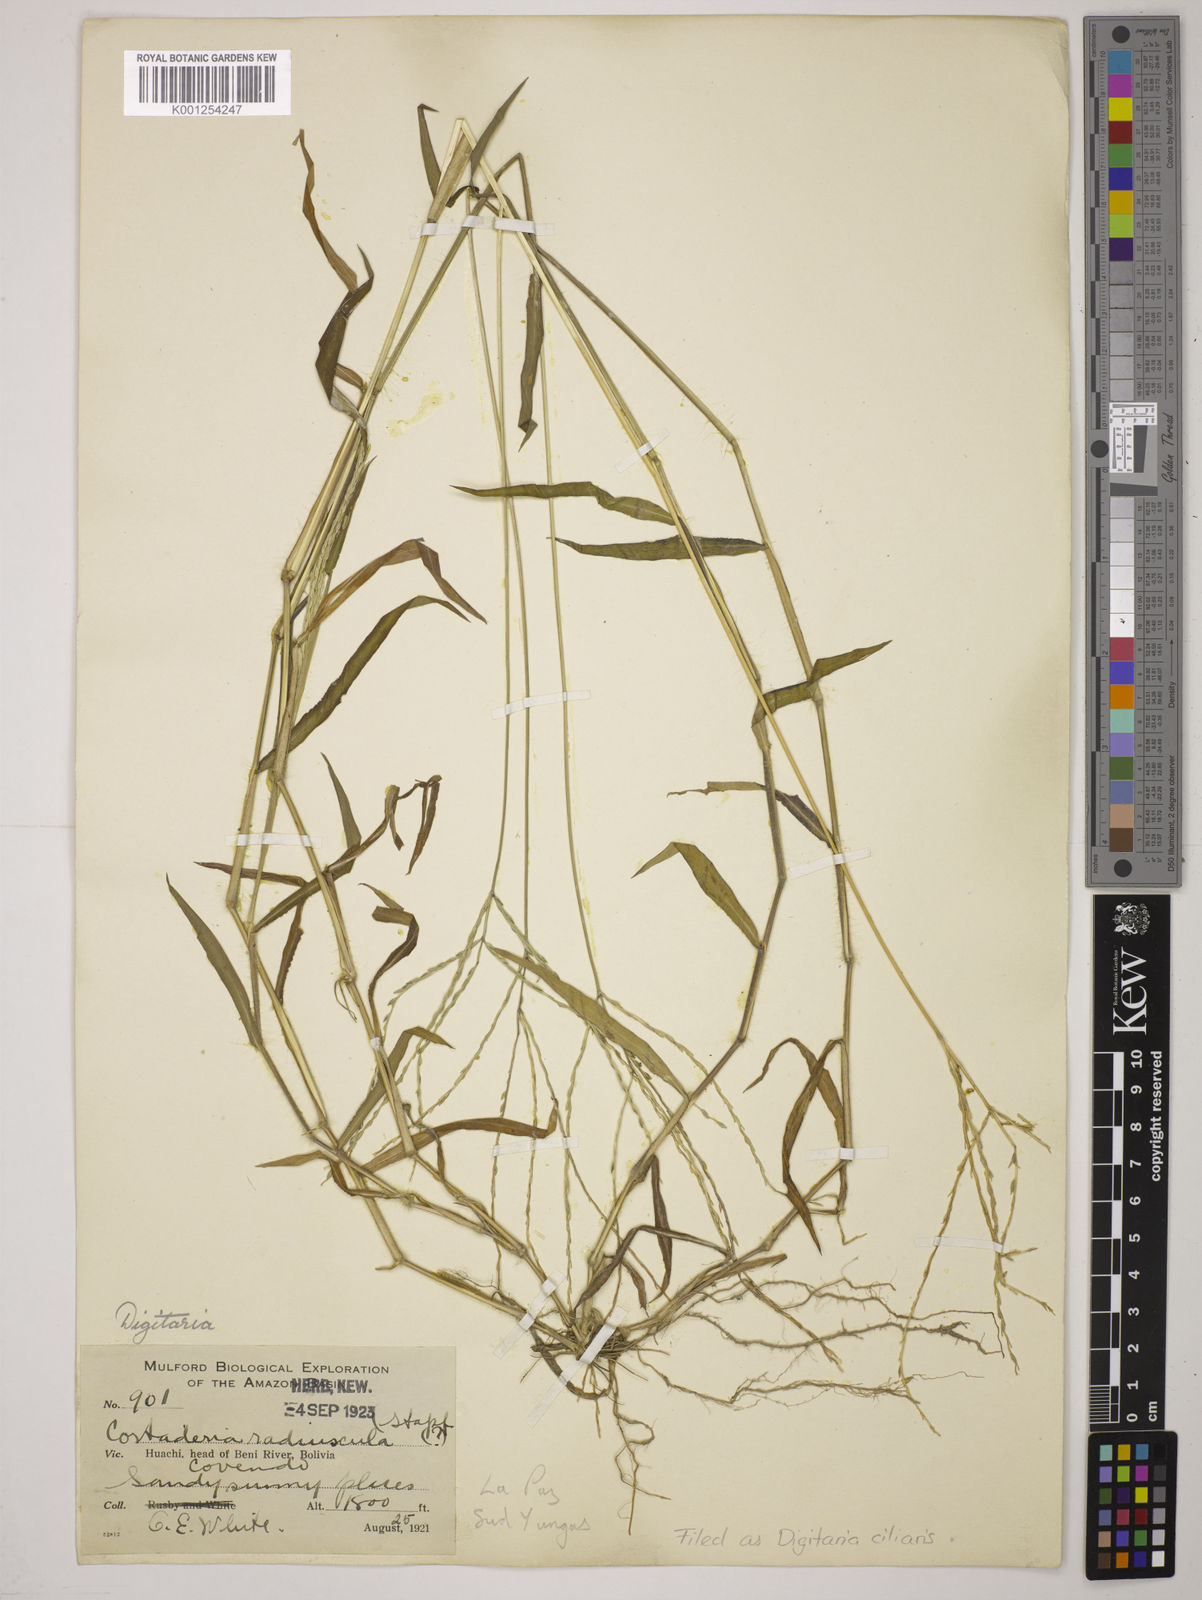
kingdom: Plantae
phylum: Tracheophyta
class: Liliopsida
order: Poales
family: Poaceae
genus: Digitaria
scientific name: Digitaria
